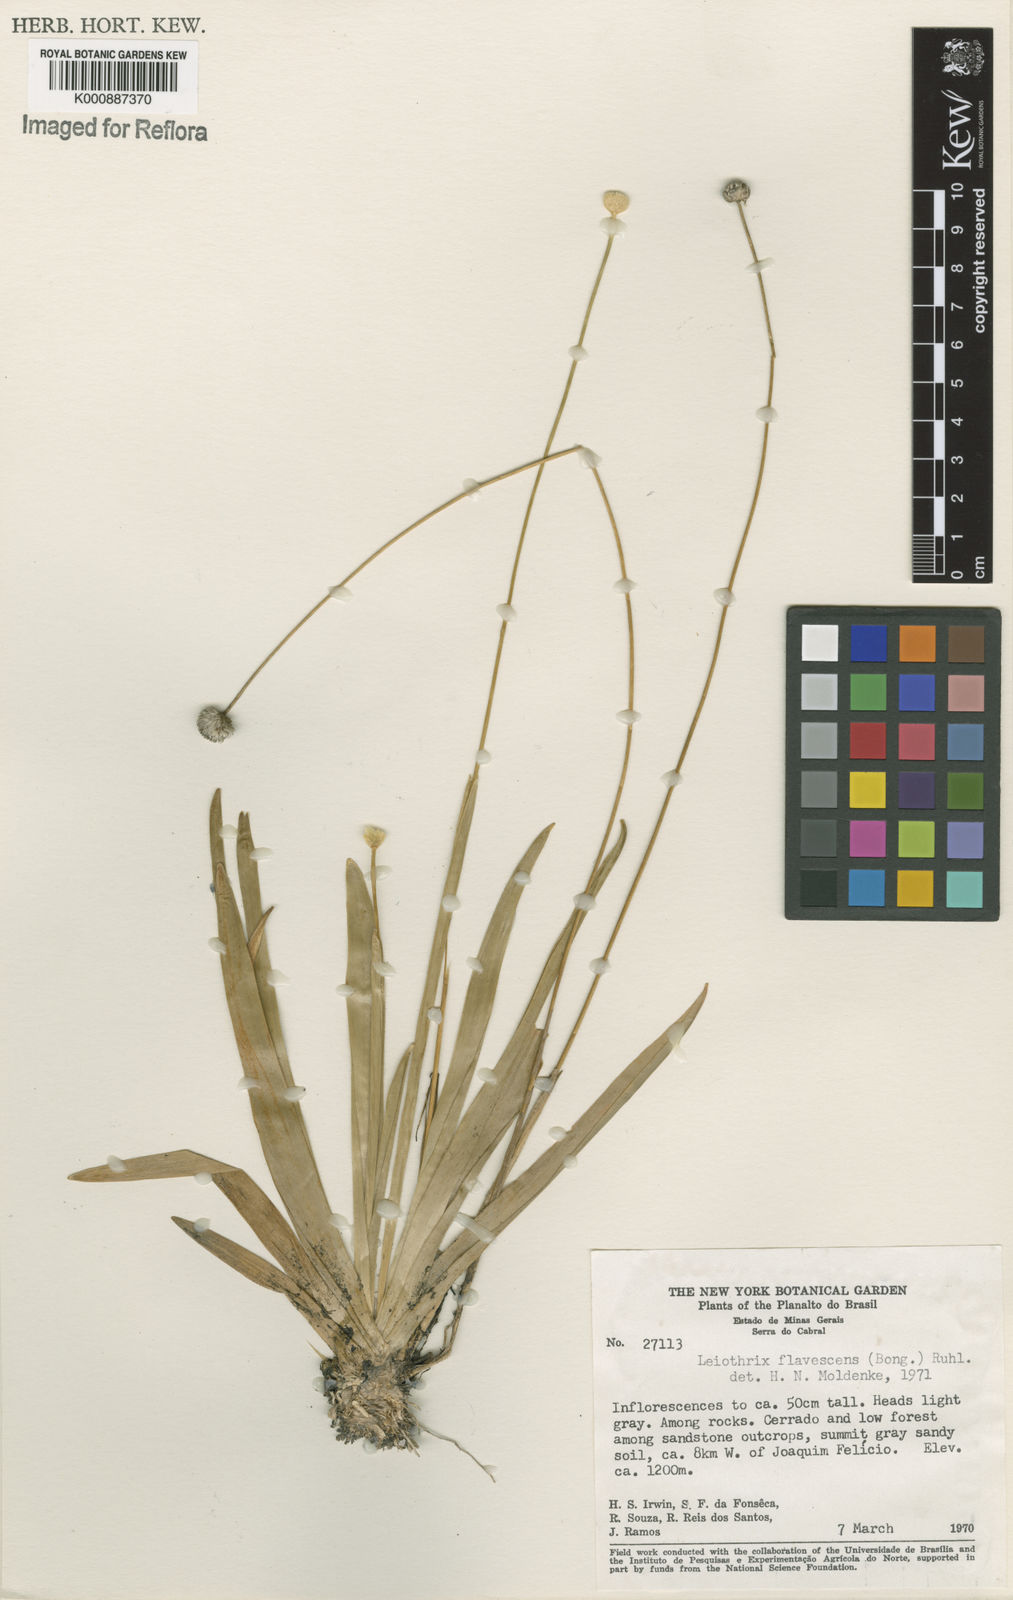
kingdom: Plantae
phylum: Tracheophyta
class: Liliopsida
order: Poales
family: Eriocaulaceae
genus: Leiothrix
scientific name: Leiothrix flavescens
